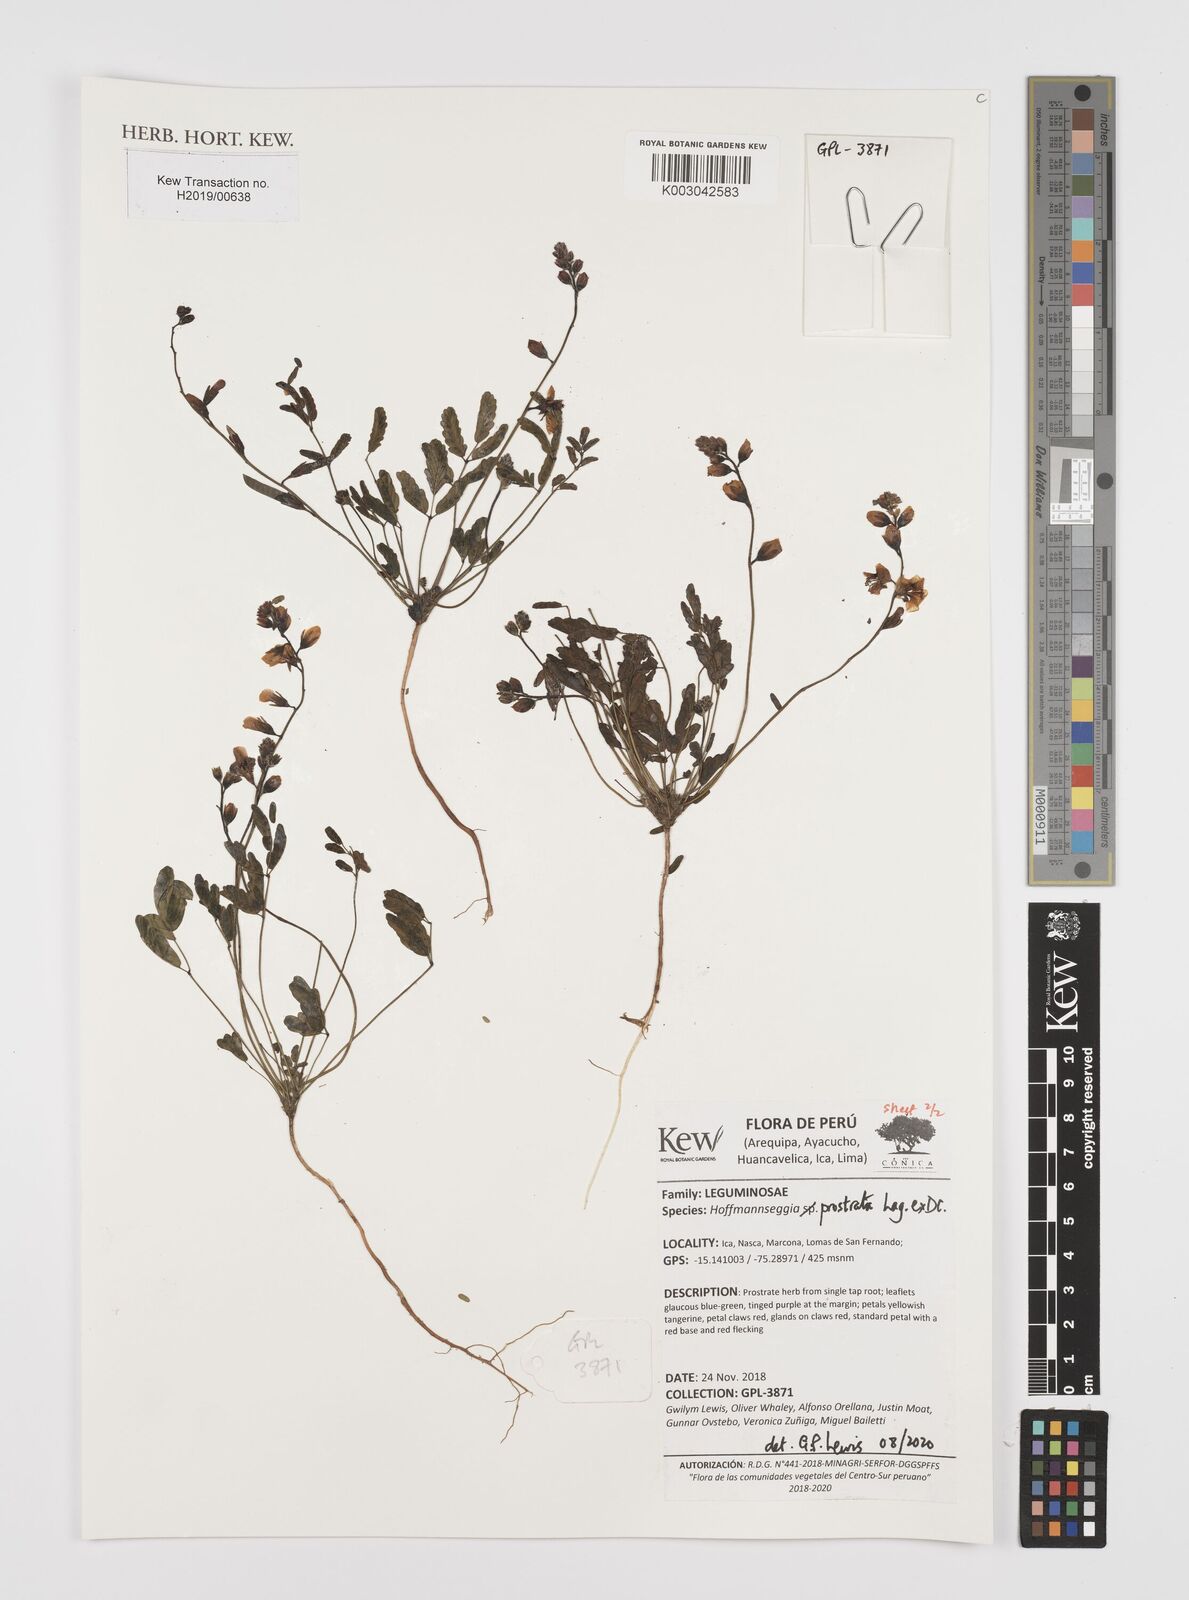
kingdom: Plantae
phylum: Tracheophyta
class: Magnoliopsida
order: Fabales
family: Fabaceae
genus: Hoffmannseggia
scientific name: Hoffmannseggia prostrata
